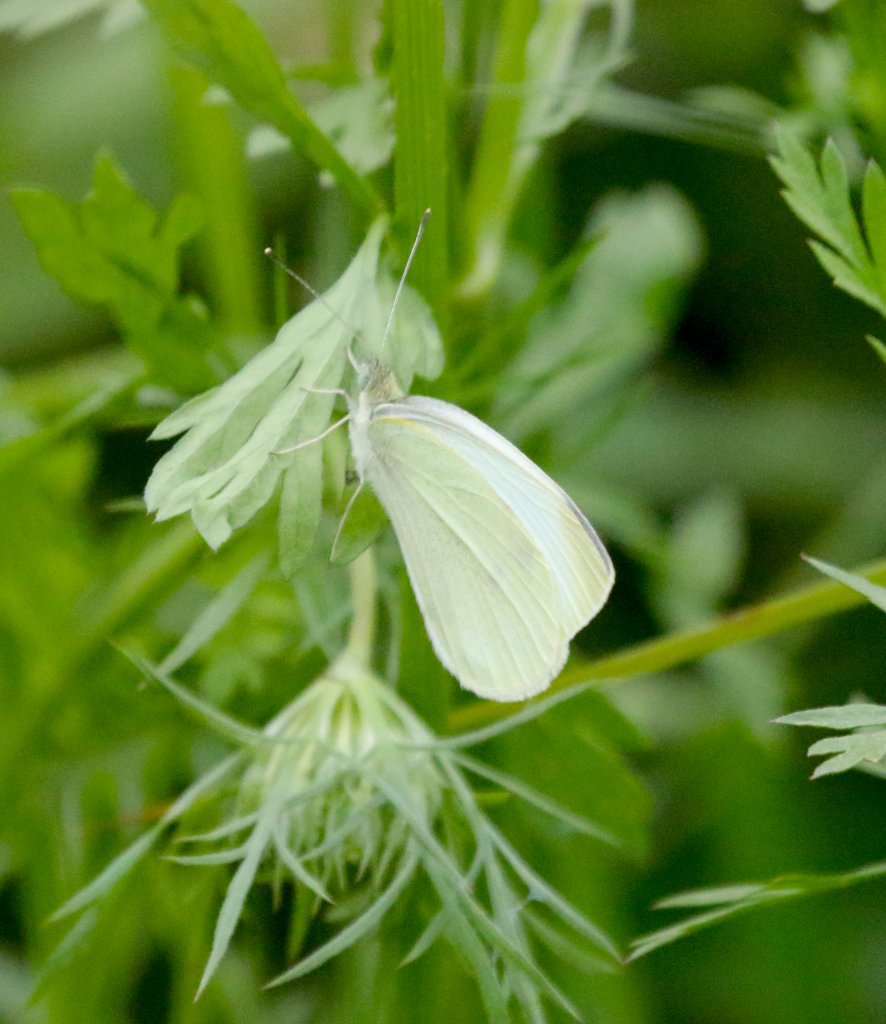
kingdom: Animalia
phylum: Arthropoda
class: Insecta
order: Lepidoptera
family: Pieridae
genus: Pieris
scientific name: Pieris rapae
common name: Cabbage White
